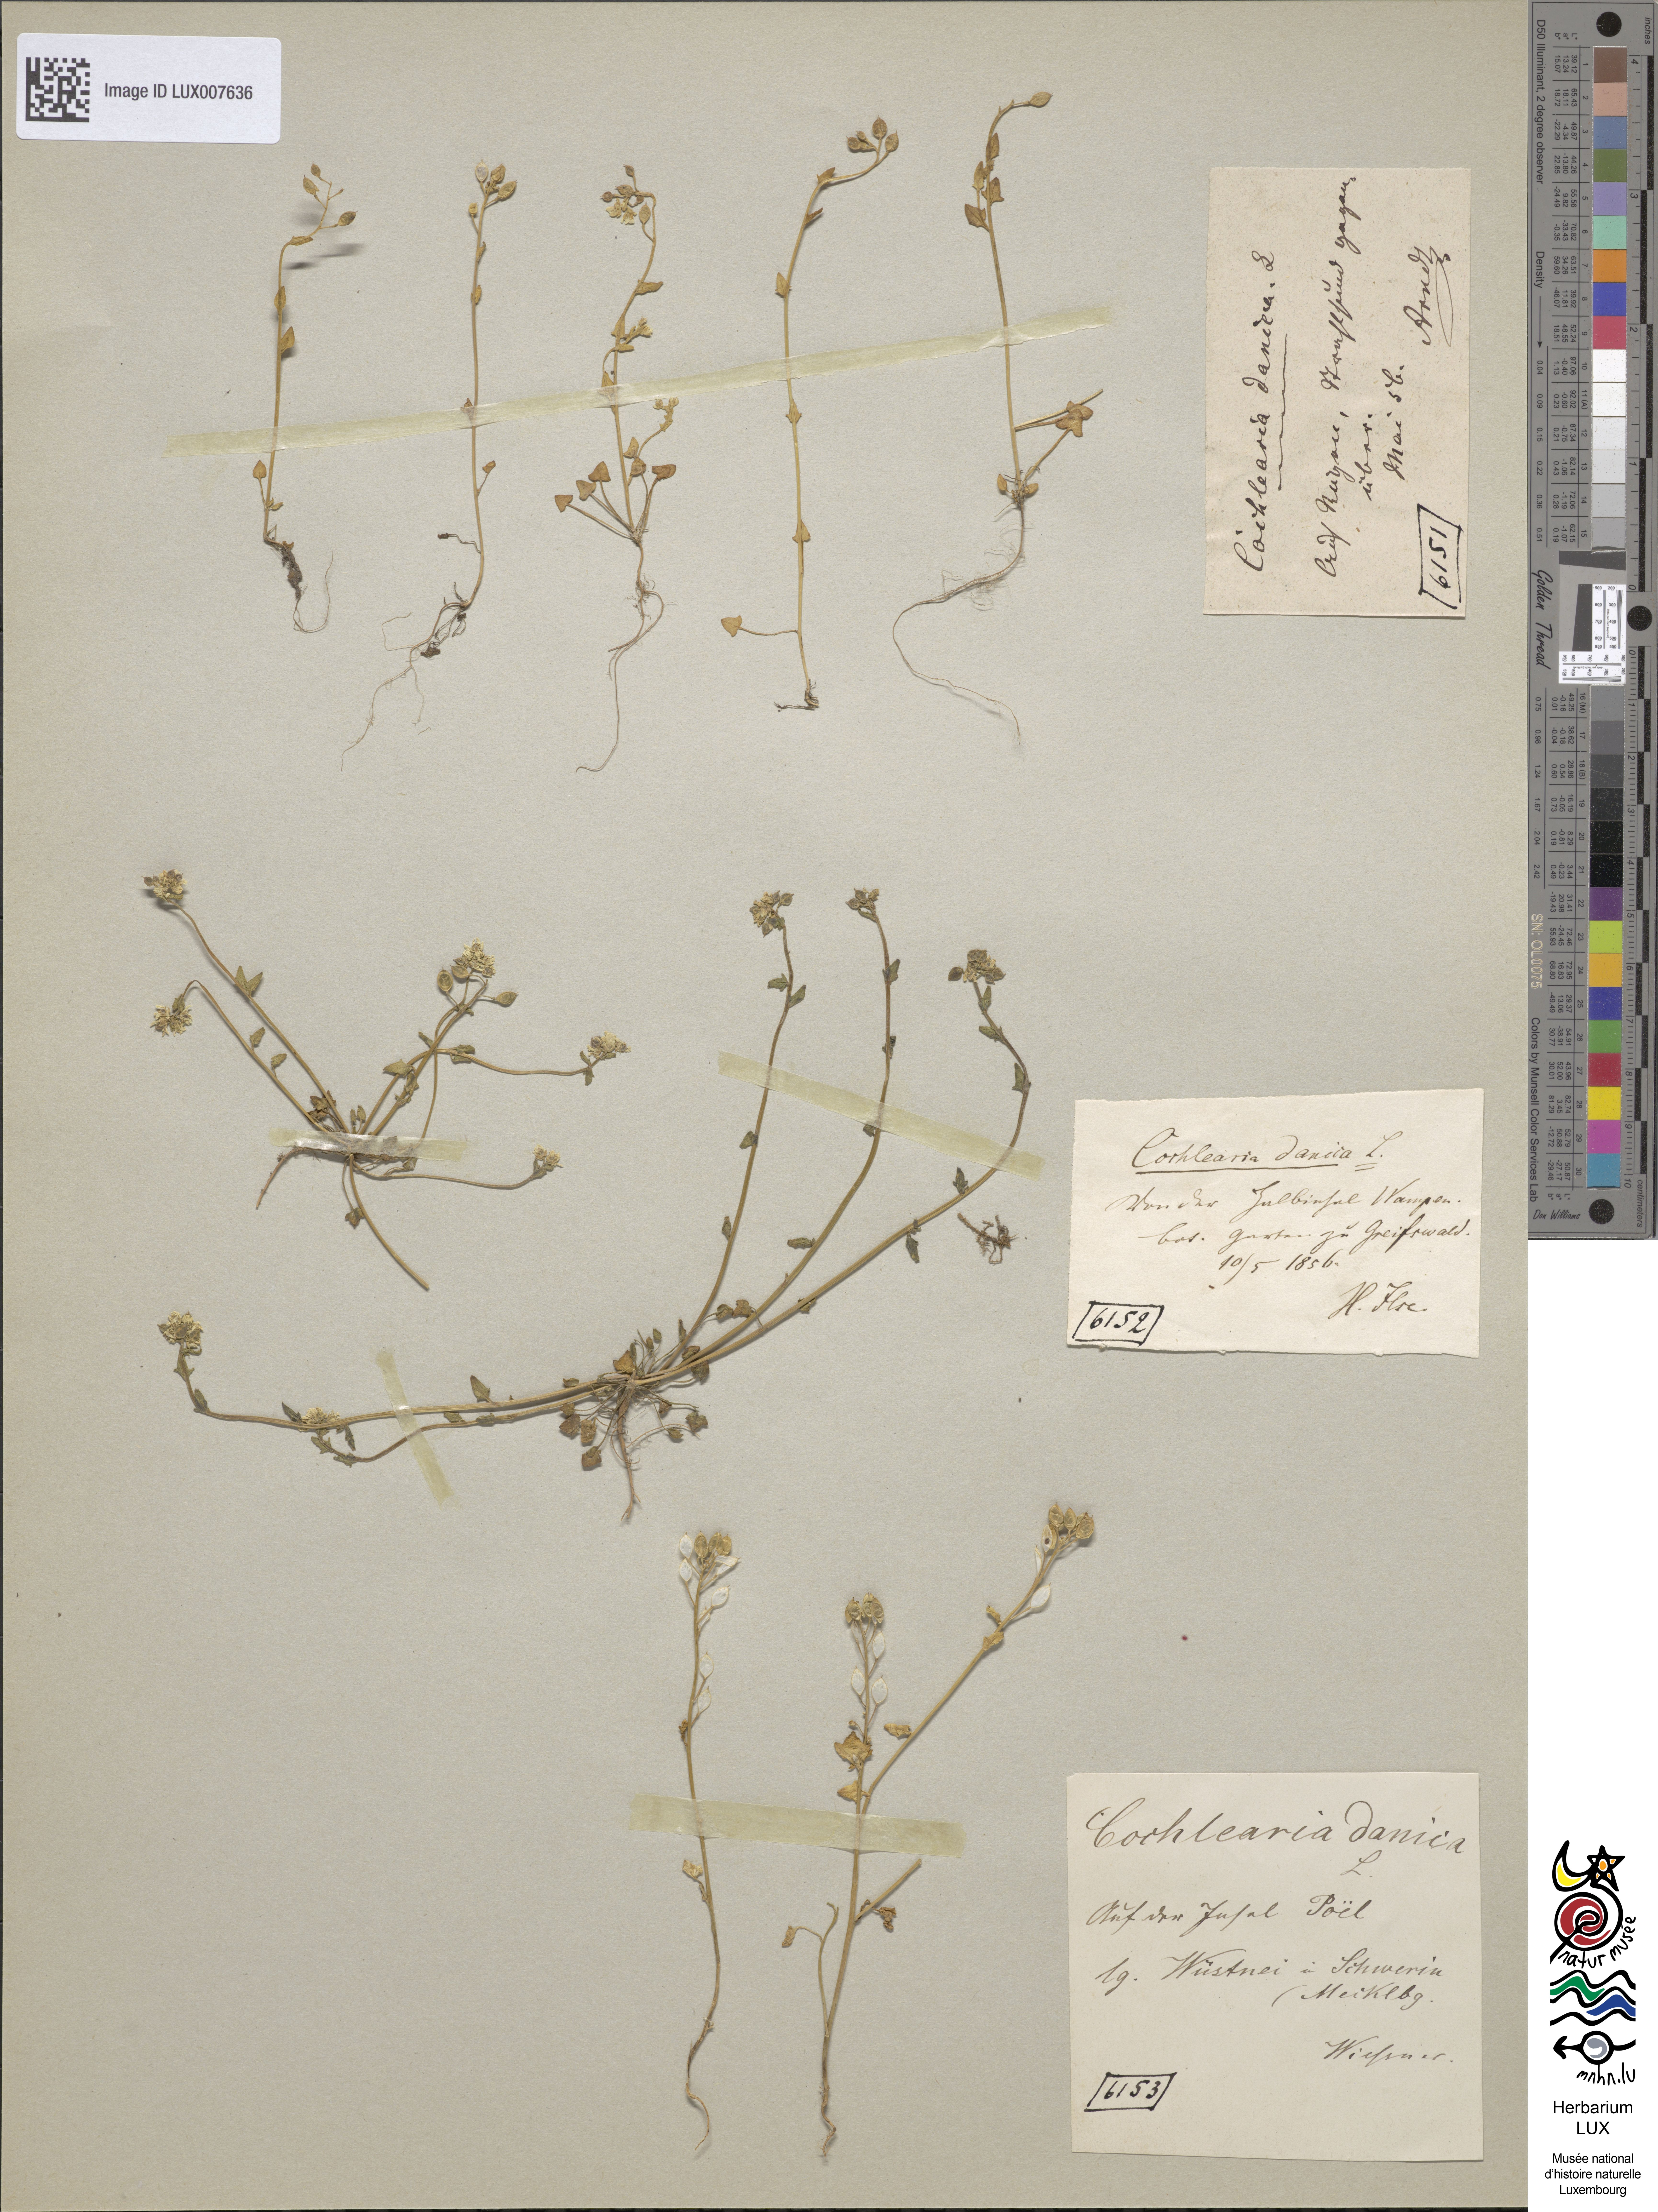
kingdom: Plantae
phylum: Tracheophyta
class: Magnoliopsida
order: Brassicales
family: Brassicaceae
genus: Cochlearia
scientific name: Cochlearia danica
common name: Early scurvygrass
